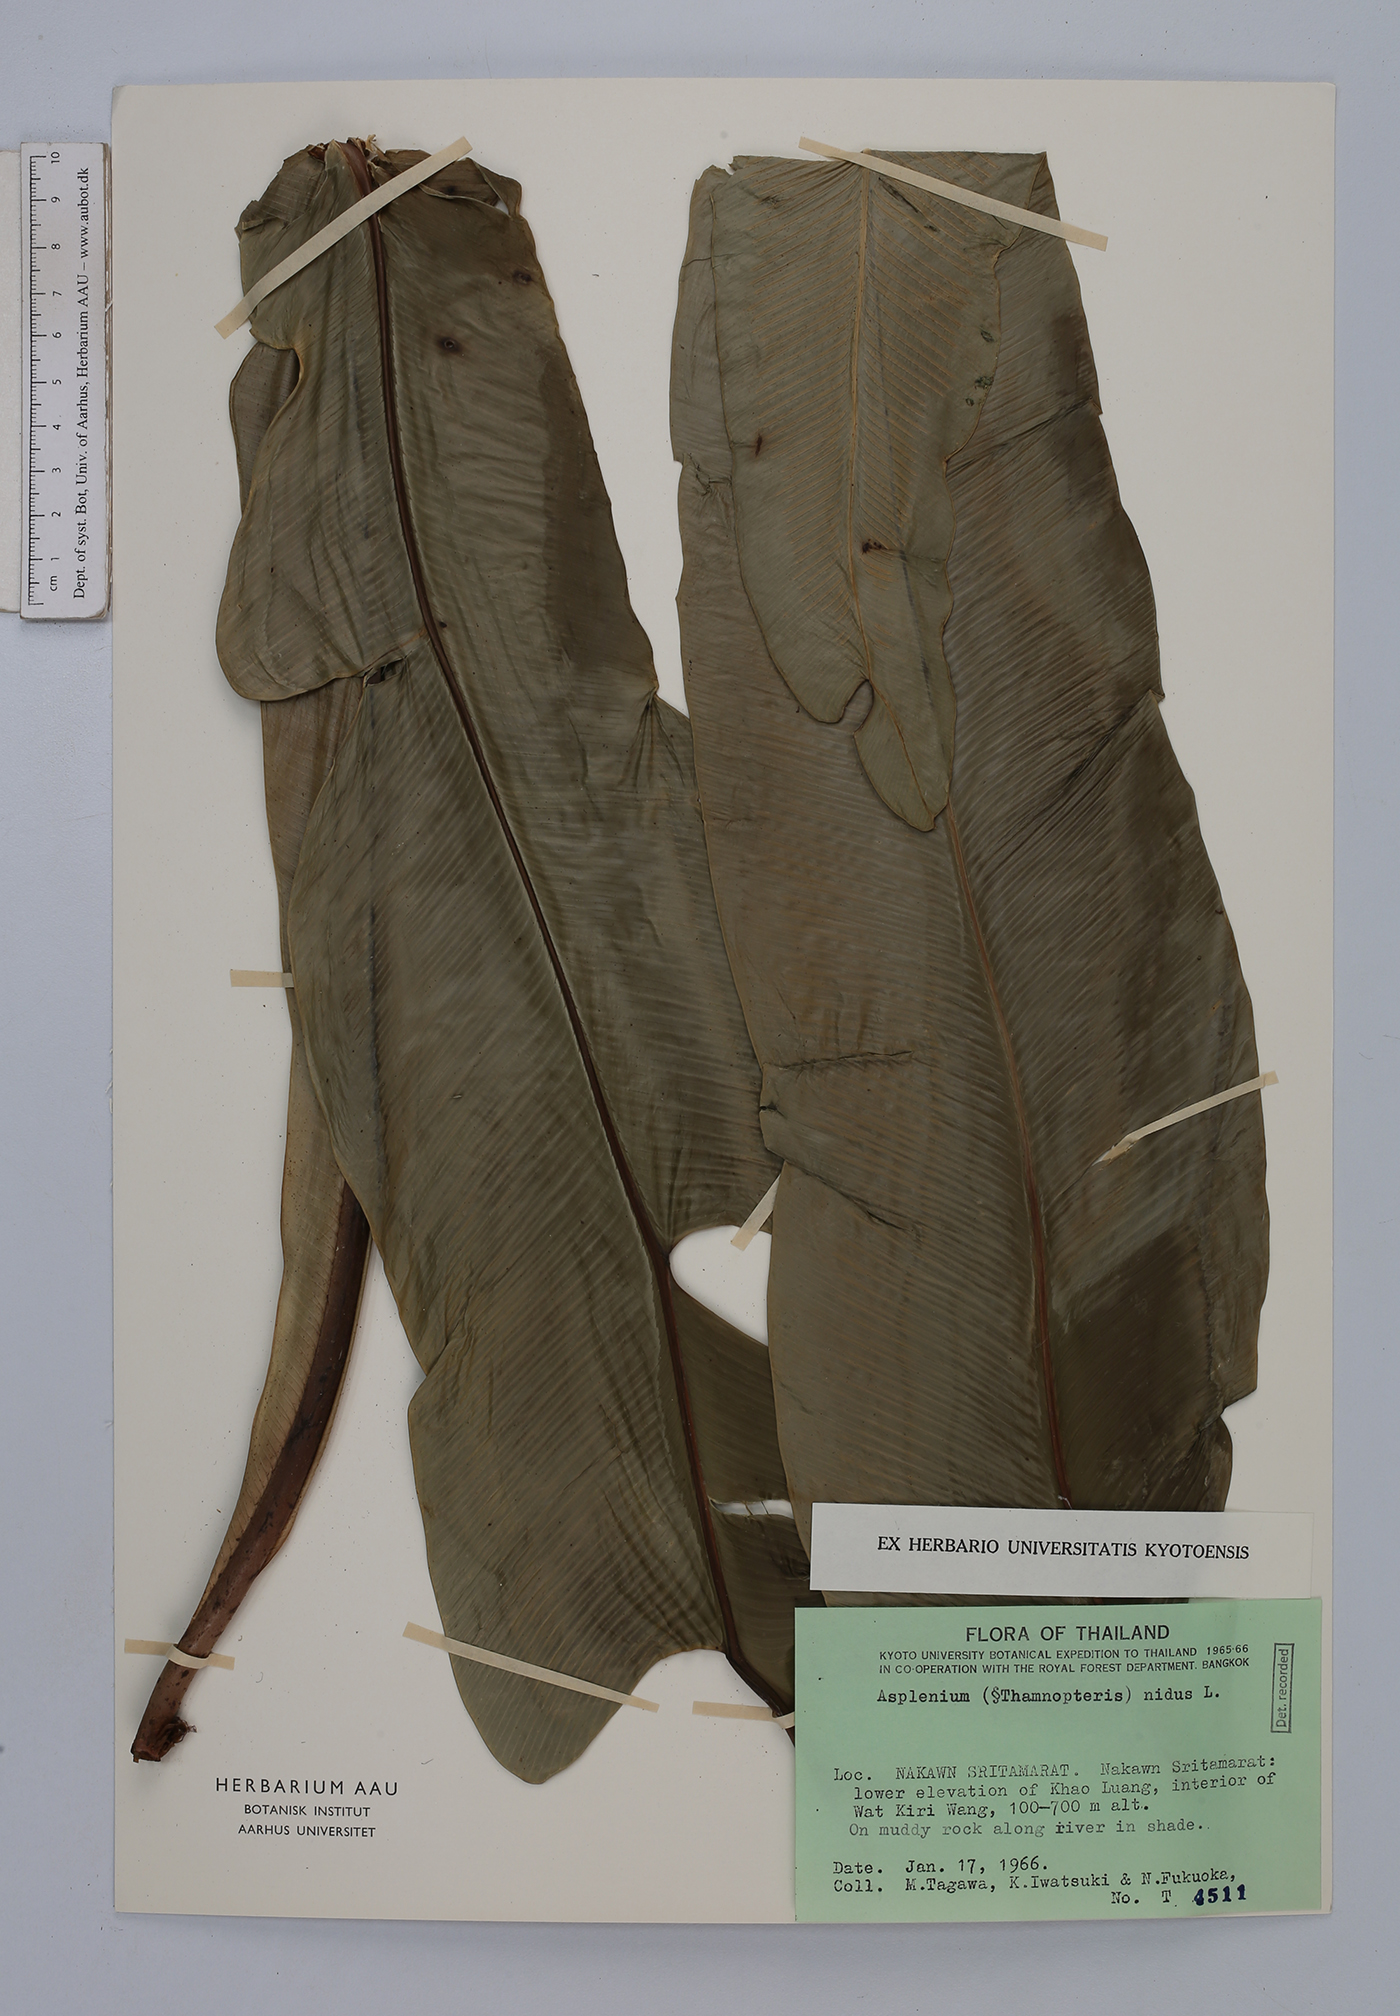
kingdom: Plantae
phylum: Tracheophyta
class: Polypodiopsida
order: Polypodiales
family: Aspleniaceae
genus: Asplenium
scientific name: Asplenium nidus
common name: Bird's-nest fern
